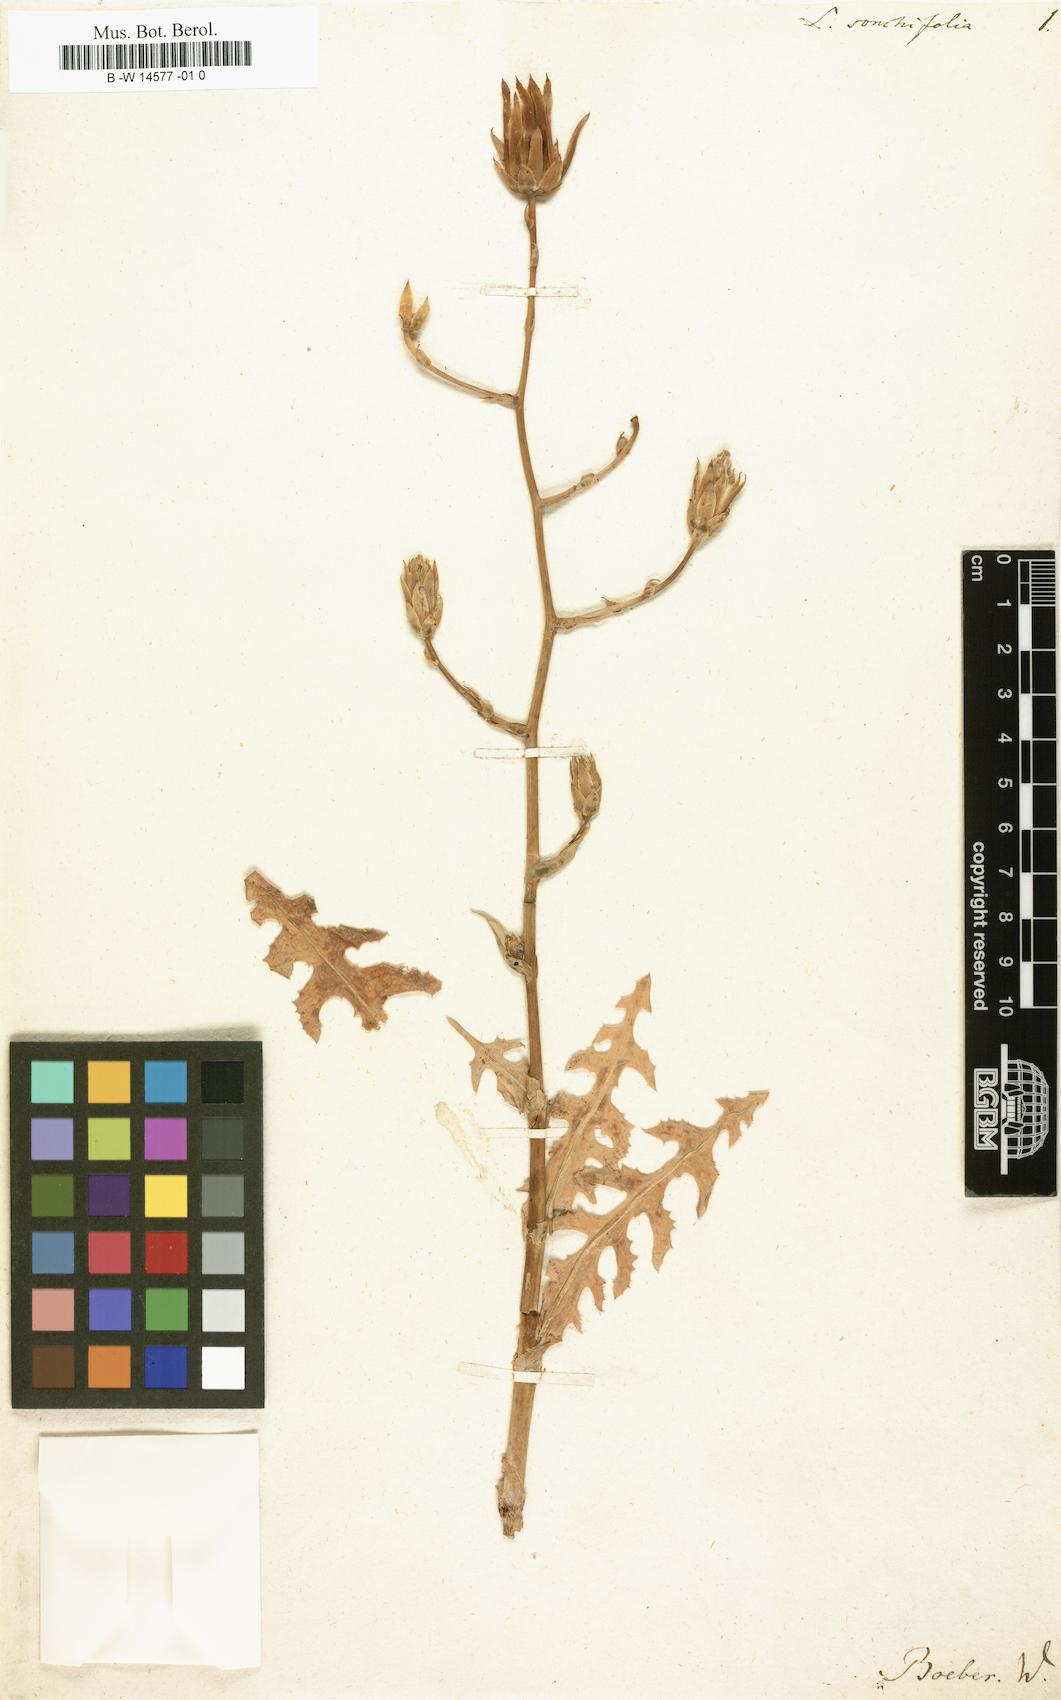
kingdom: Plantae
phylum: Tracheophyta
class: Magnoliopsida
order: Asterales
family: Asteraceae
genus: Lactuca
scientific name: Lactuca sonchifolia
